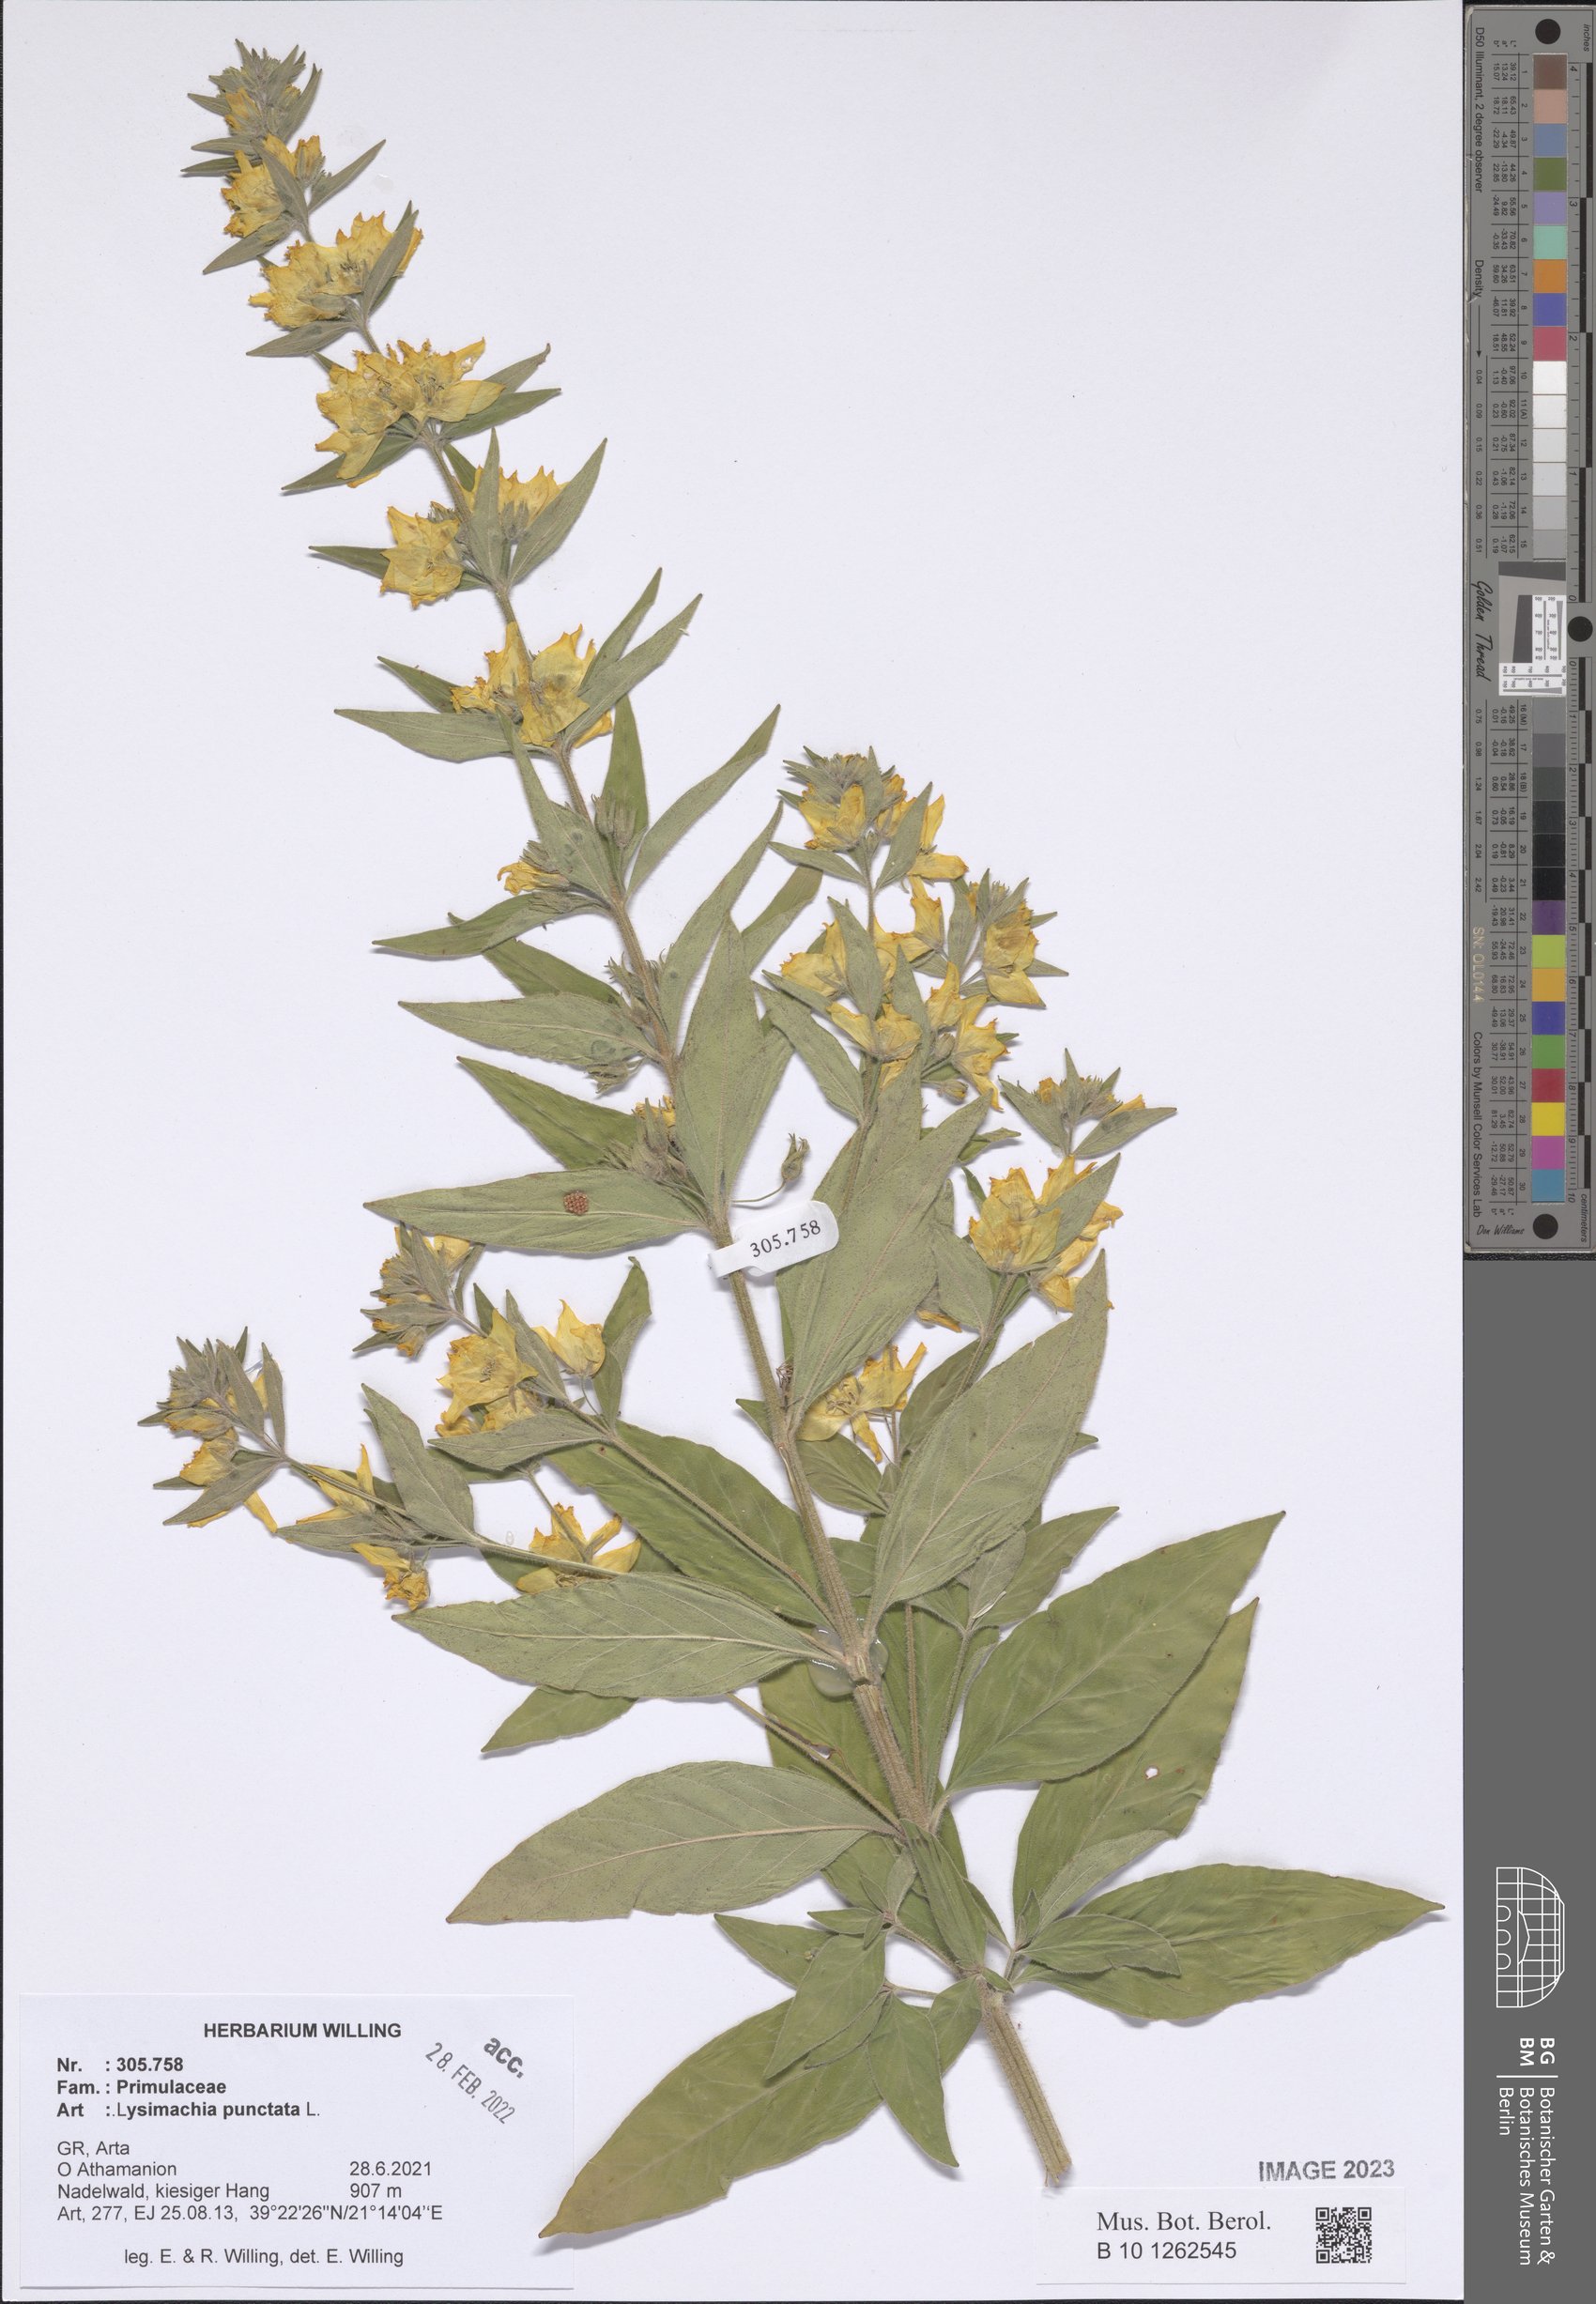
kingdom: Plantae
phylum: Tracheophyta
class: Magnoliopsida
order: Ericales
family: Primulaceae
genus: Lysimachia
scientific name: Lysimachia punctata
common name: Dotted loosestrife
